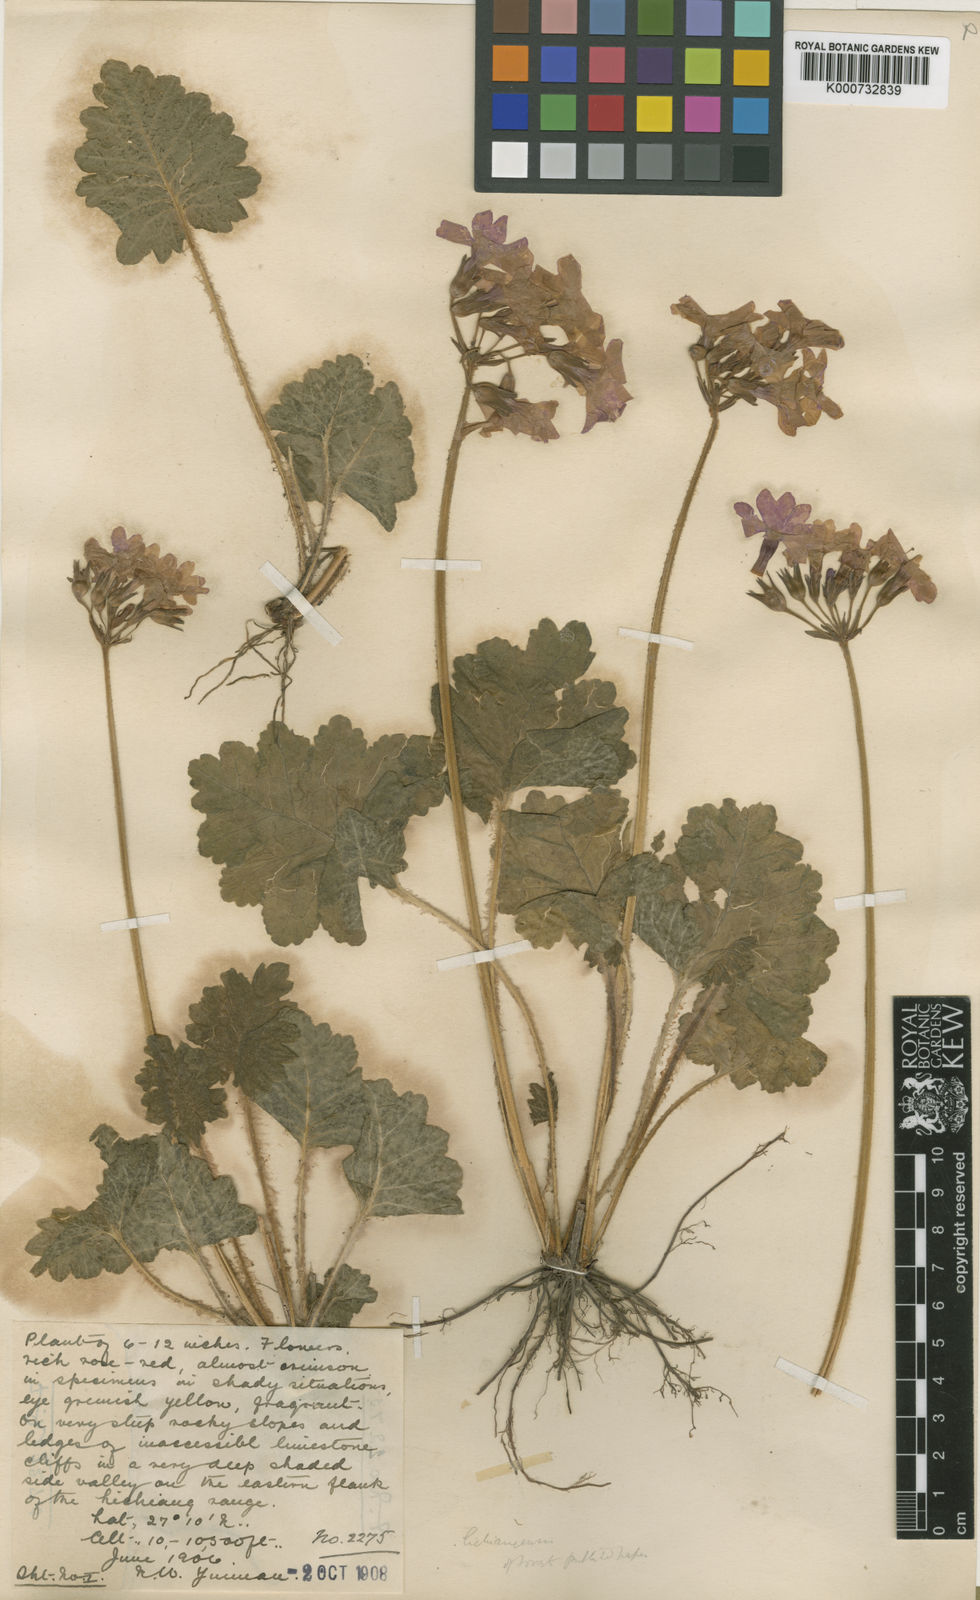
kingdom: Plantae
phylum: Tracheophyta
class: Magnoliopsida
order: Ericales
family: Primulaceae
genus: Primula
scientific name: Primula
